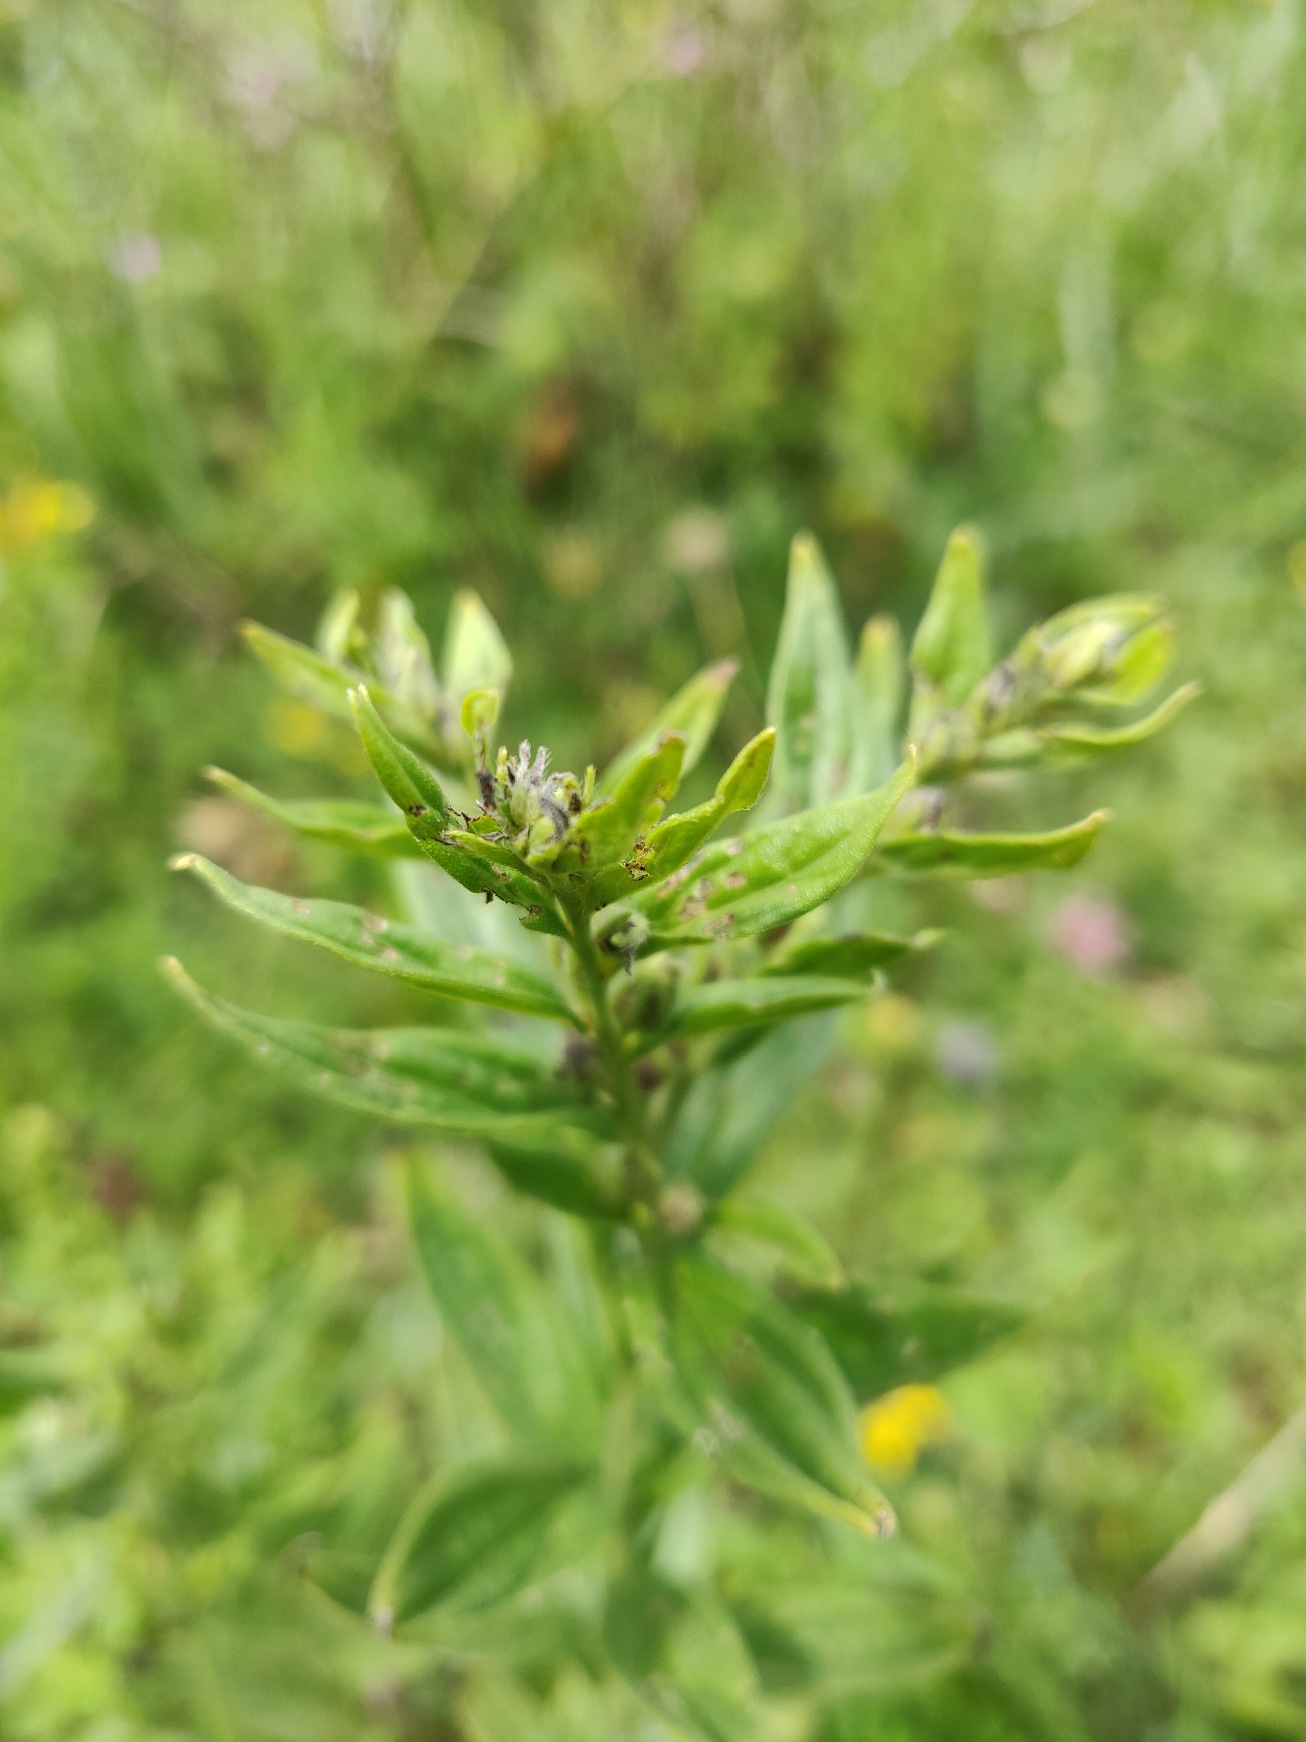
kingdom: Plantae
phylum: Tracheophyta
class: Magnoliopsida
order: Boraginales
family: Boraginaceae
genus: Lithospermum
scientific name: Lithospermum officinale
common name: Læge-stenfrø
